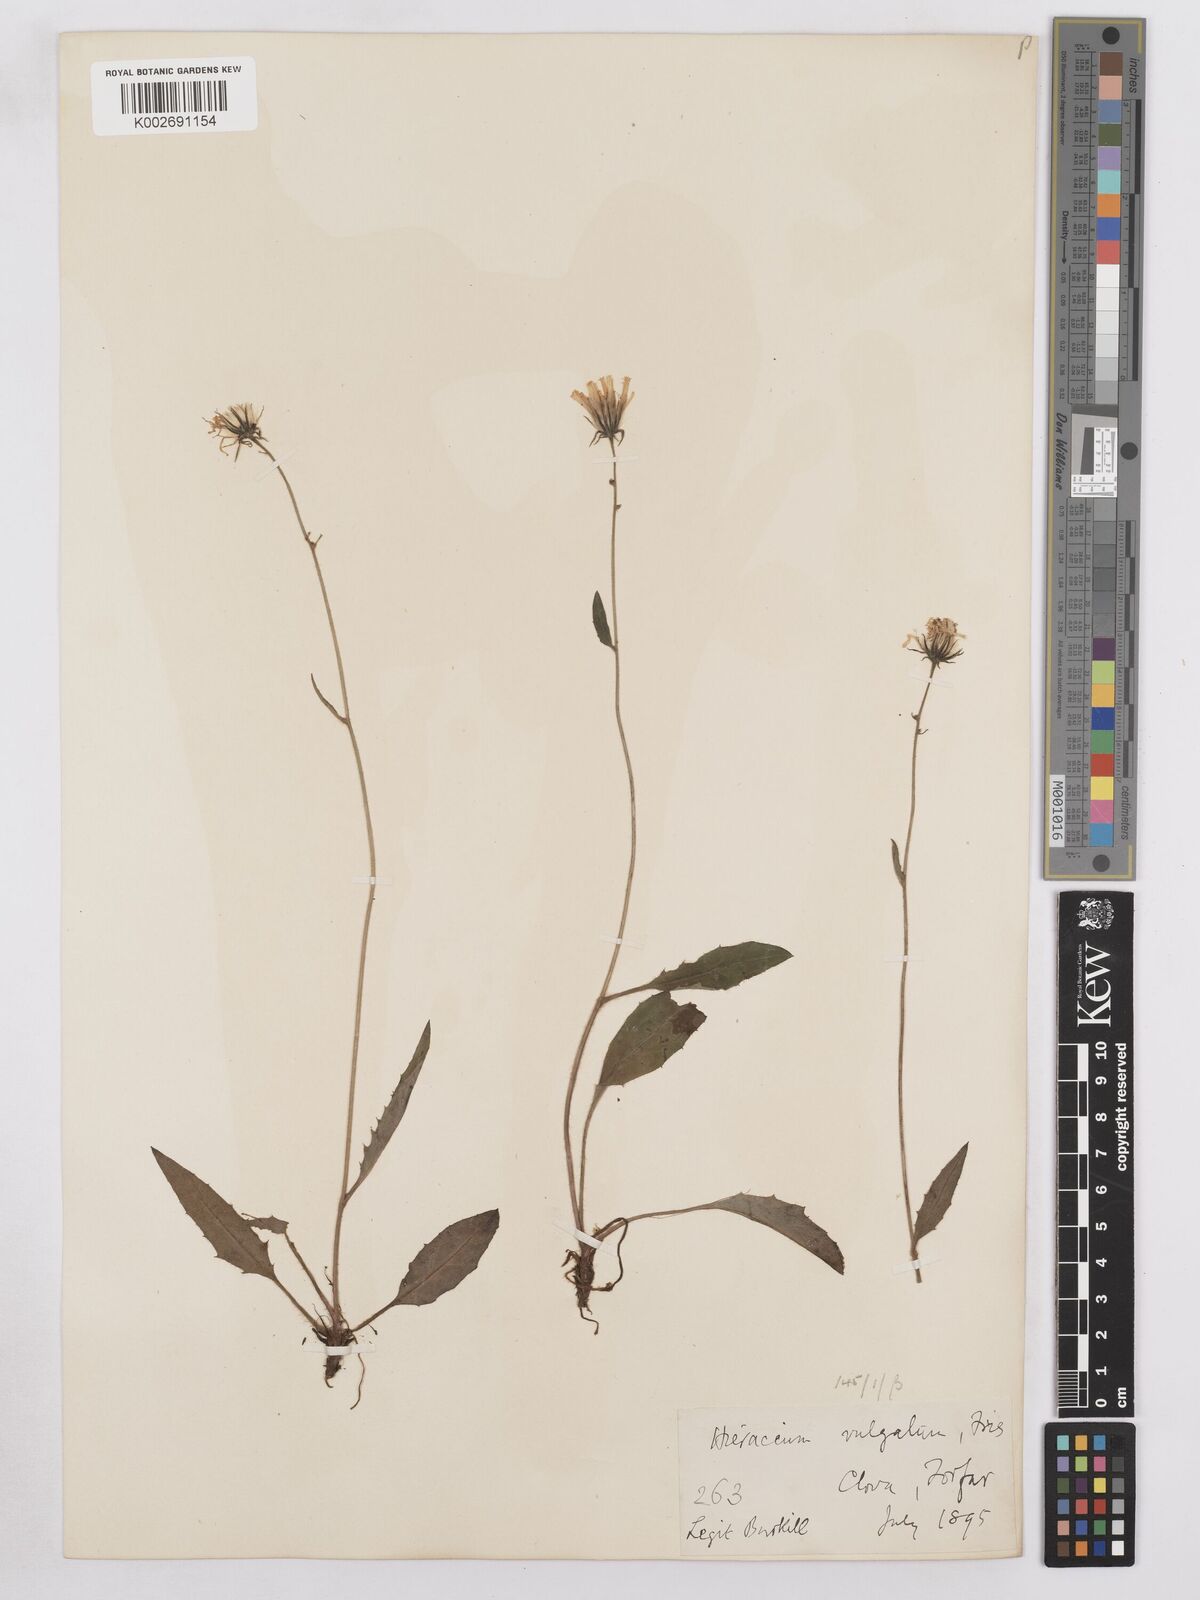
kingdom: Plantae
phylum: Tracheophyta
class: Magnoliopsida
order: Asterales
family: Asteraceae
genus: Hieracium
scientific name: Hieracium lachenalii
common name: Common hawkweed
